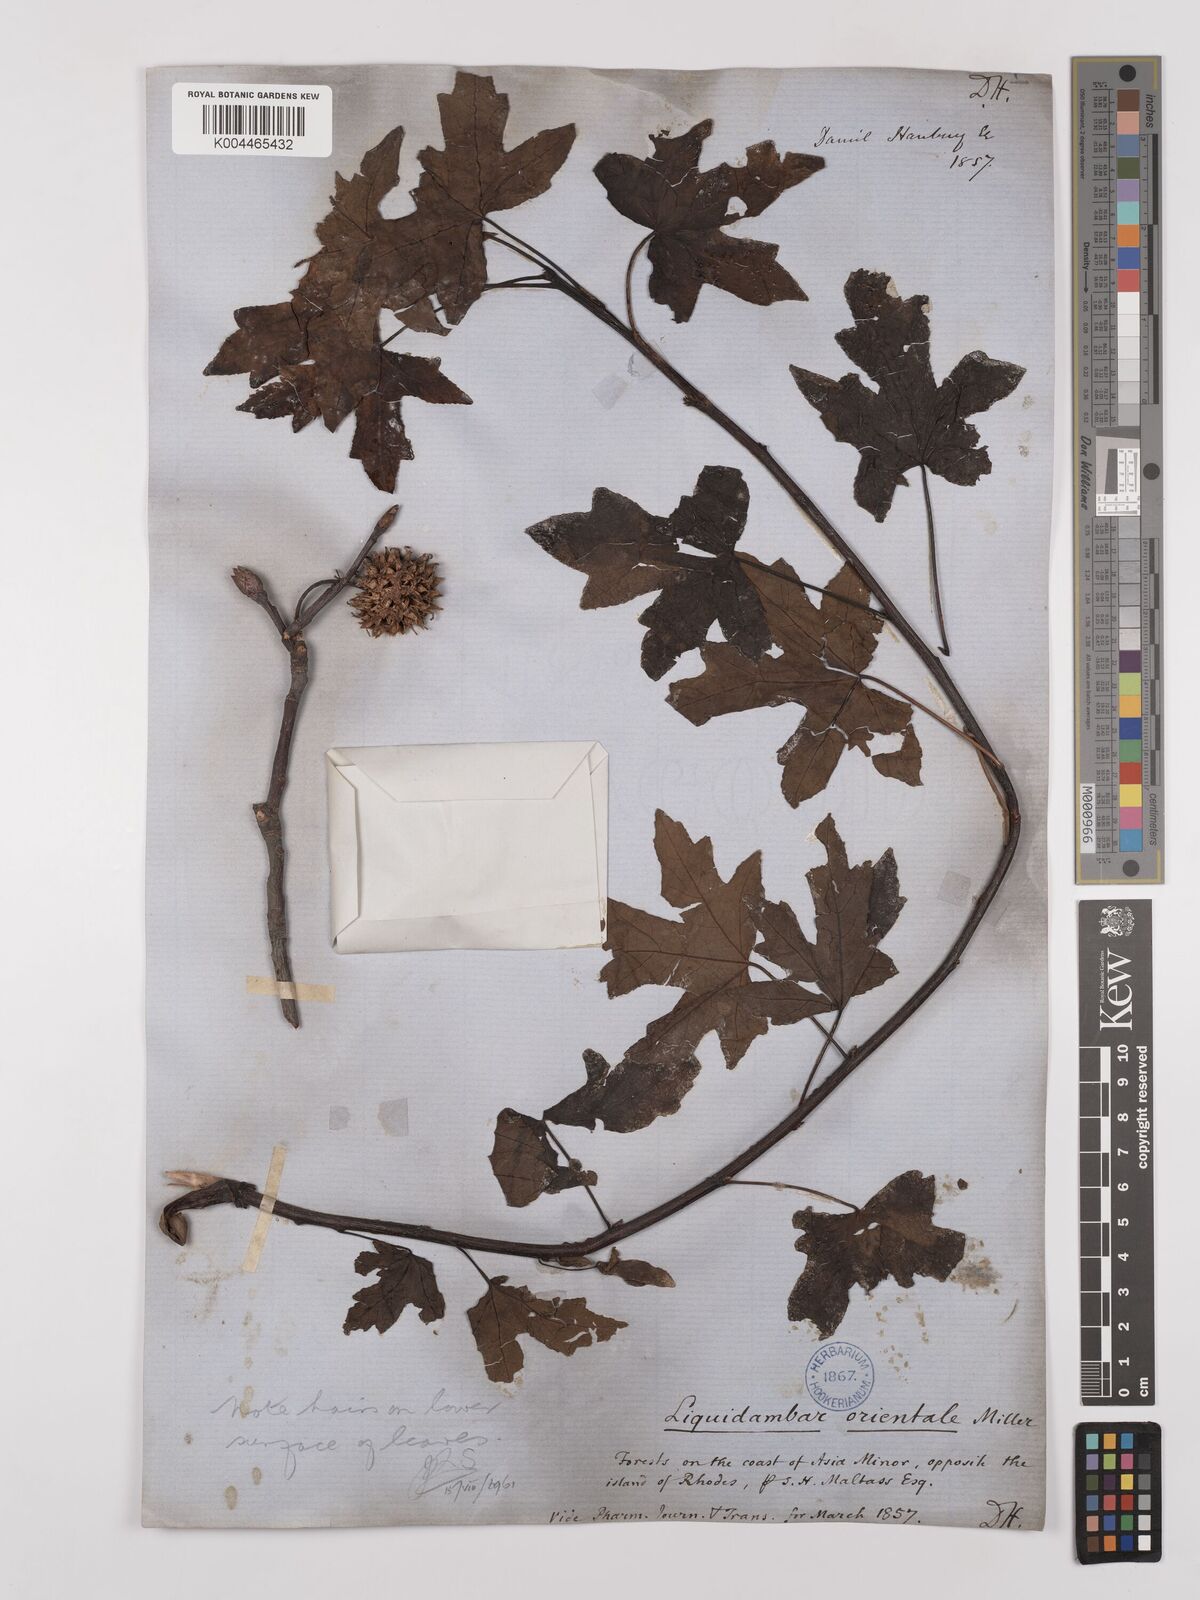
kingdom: Plantae
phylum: Tracheophyta
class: Magnoliopsida
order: Saxifragales
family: Altingiaceae
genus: Liquidambar
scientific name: Liquidambar orientalis
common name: Oriental sweetgum
